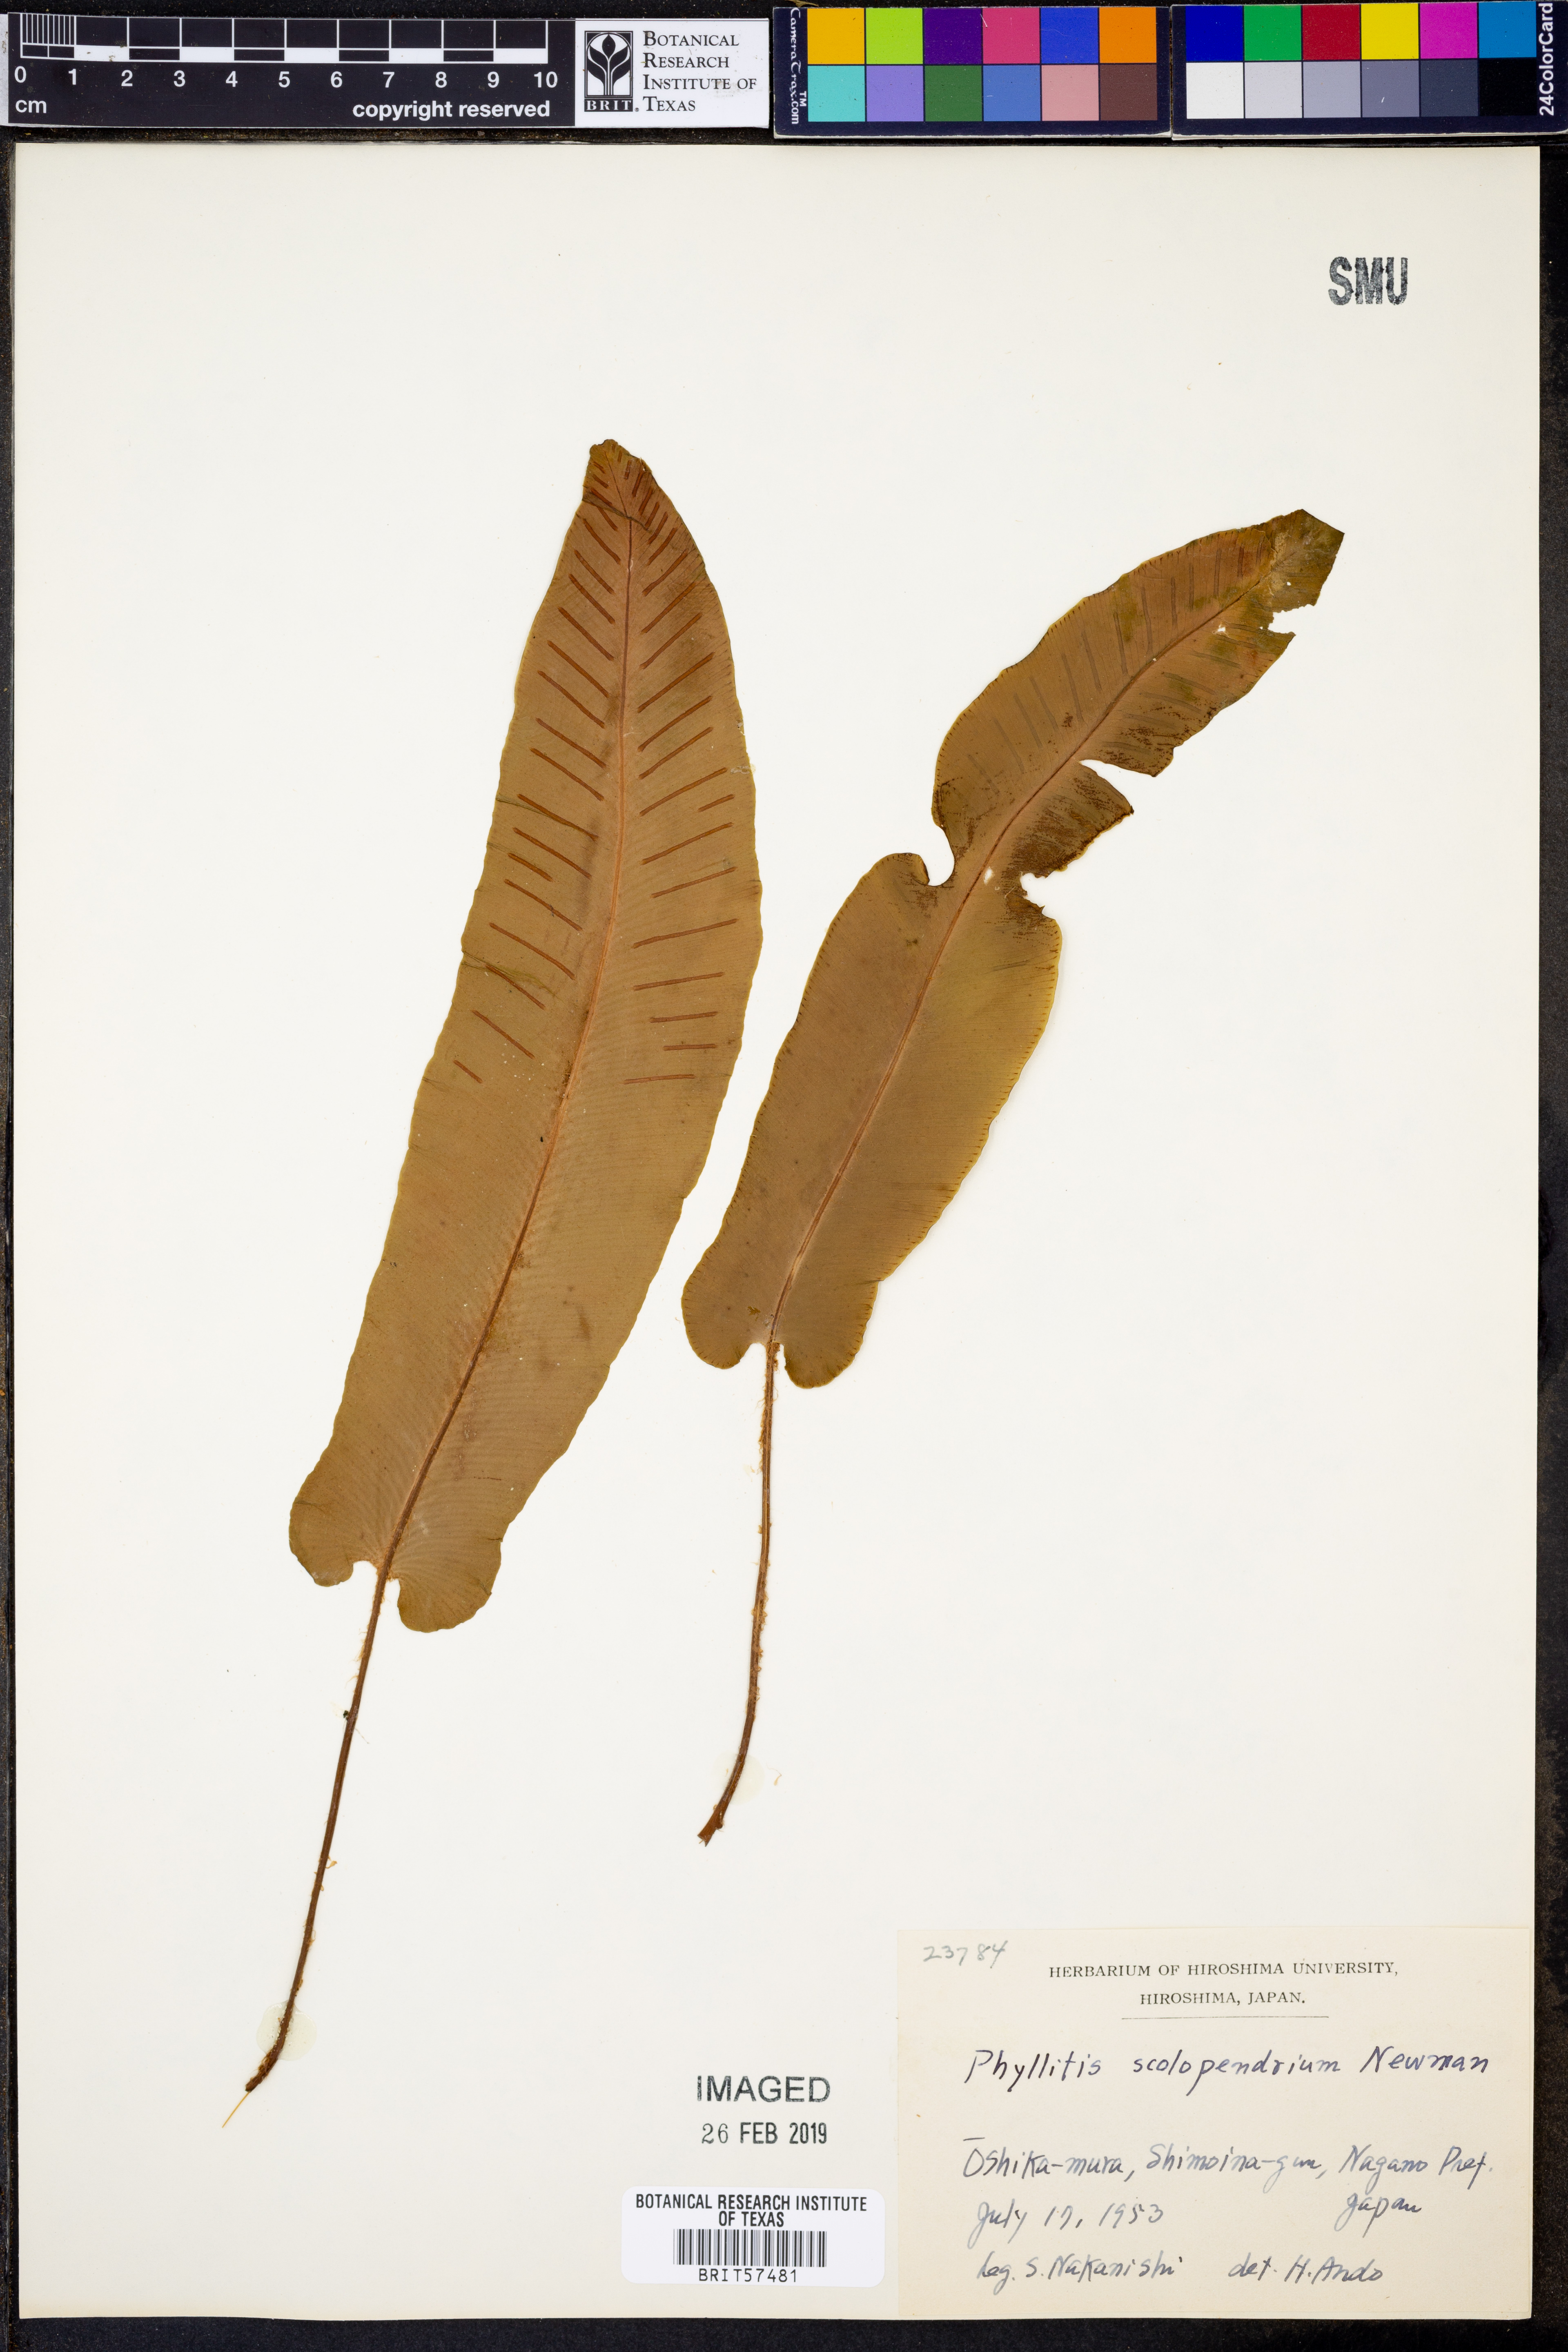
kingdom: Plantae
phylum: Tracheophyta
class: Polypodiopsida
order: Polypodiales
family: Aspleniaceae
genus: Asplenium
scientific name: Asplenium scolopendrium
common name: Hart's-tongue fern
